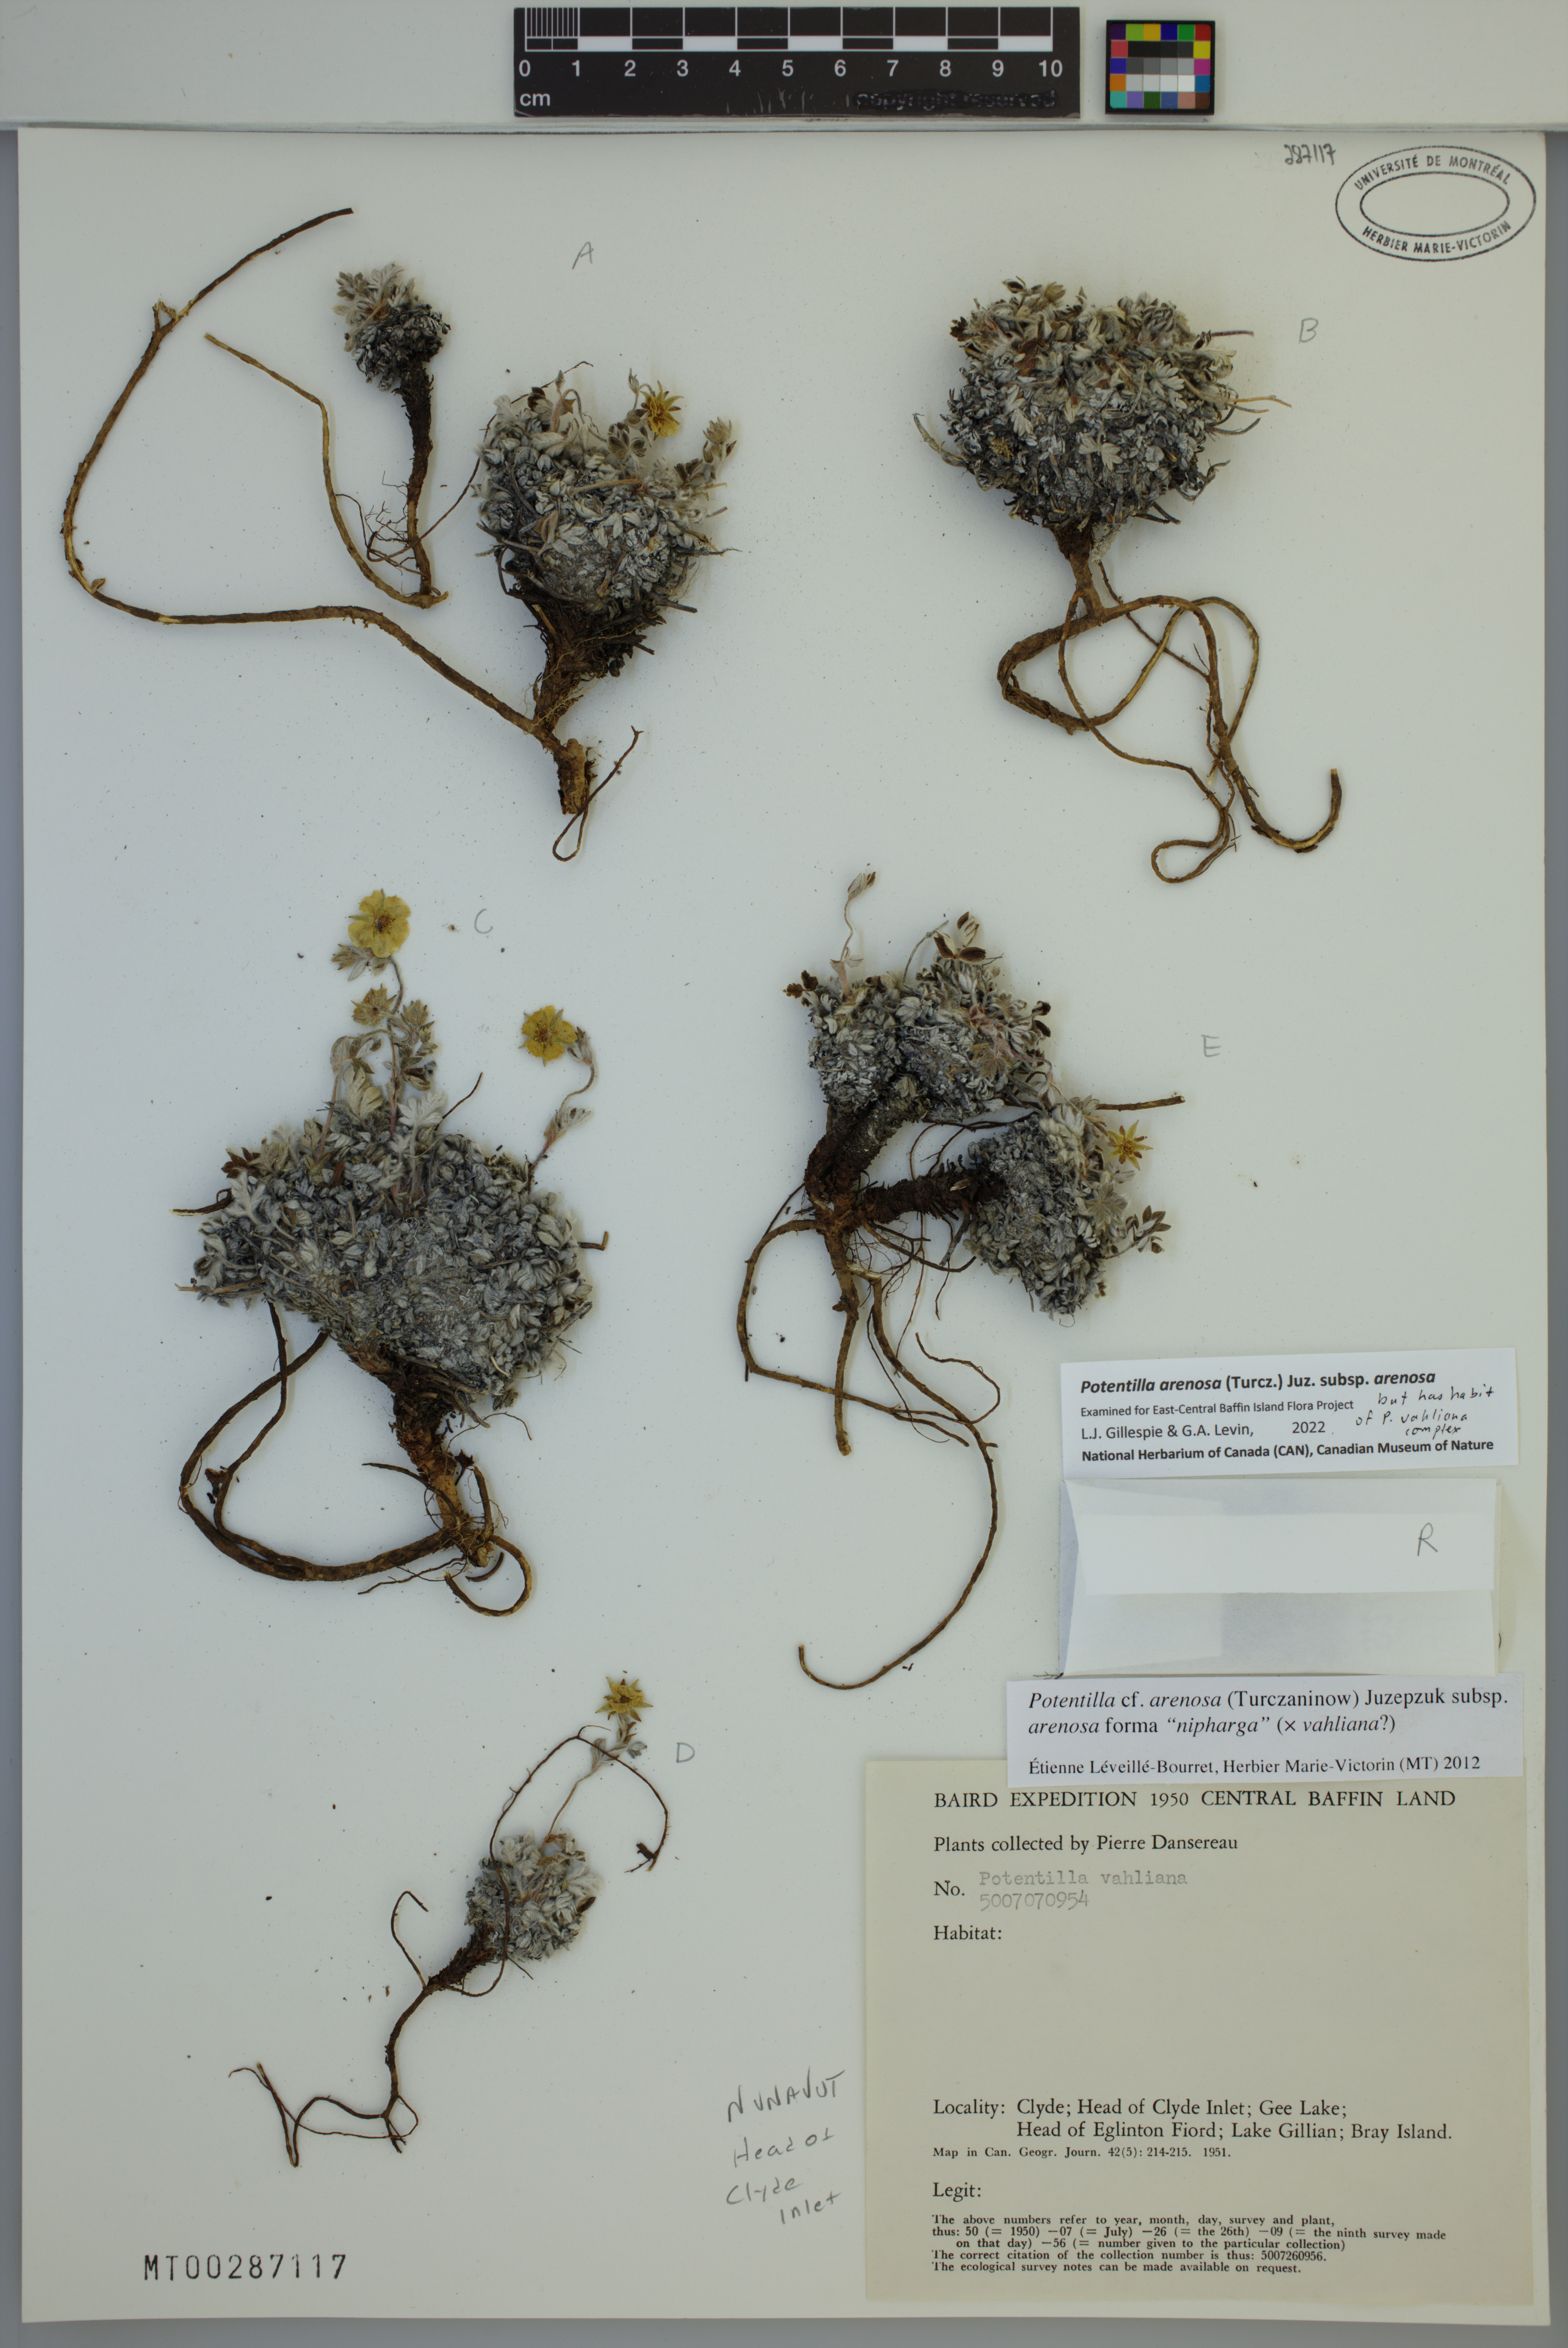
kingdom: Plantae
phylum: Tracheophyta
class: Magnoliopsida
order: Rosales
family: Rosaceae
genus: Potentilla
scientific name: Potentilla arenosa
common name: Bluff cinquefoil
